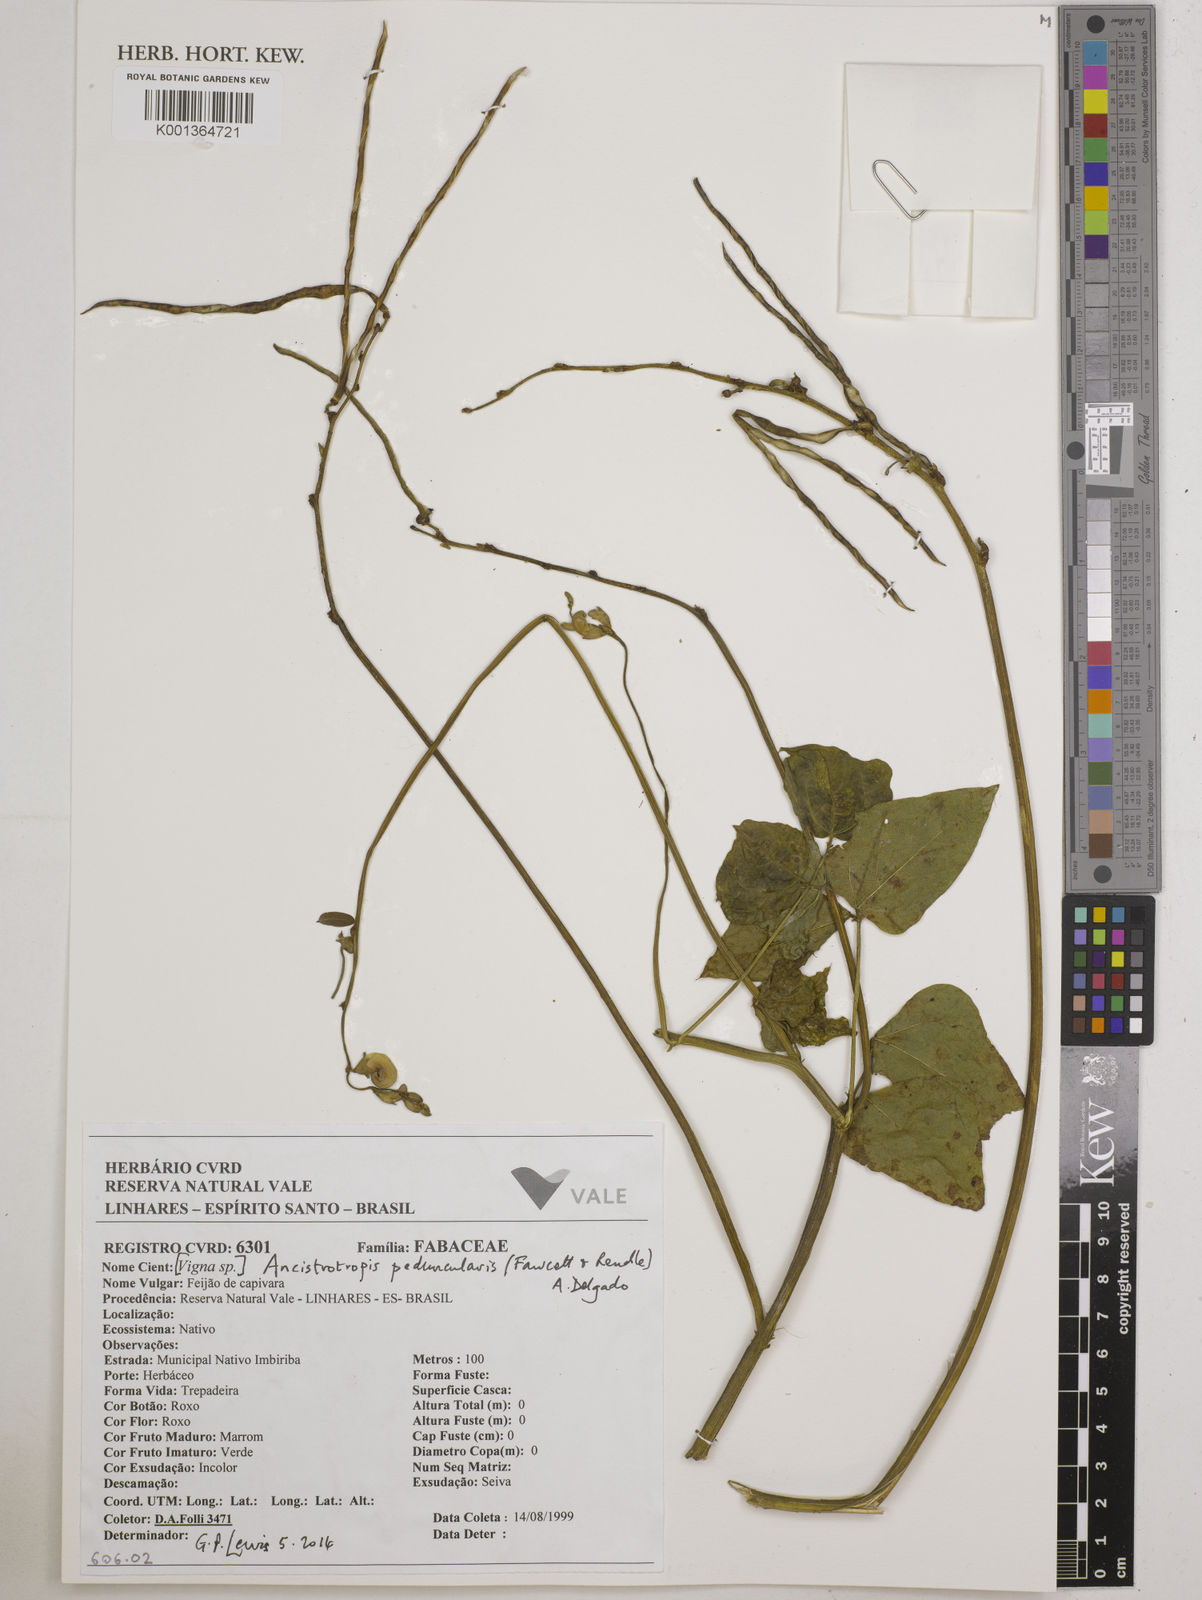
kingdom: Plantae
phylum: Tracheophyta
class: Magnoliopsida
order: Fabales
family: Fabaceae
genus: Ancistrotropis
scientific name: Ancistrotropis peduncularis
